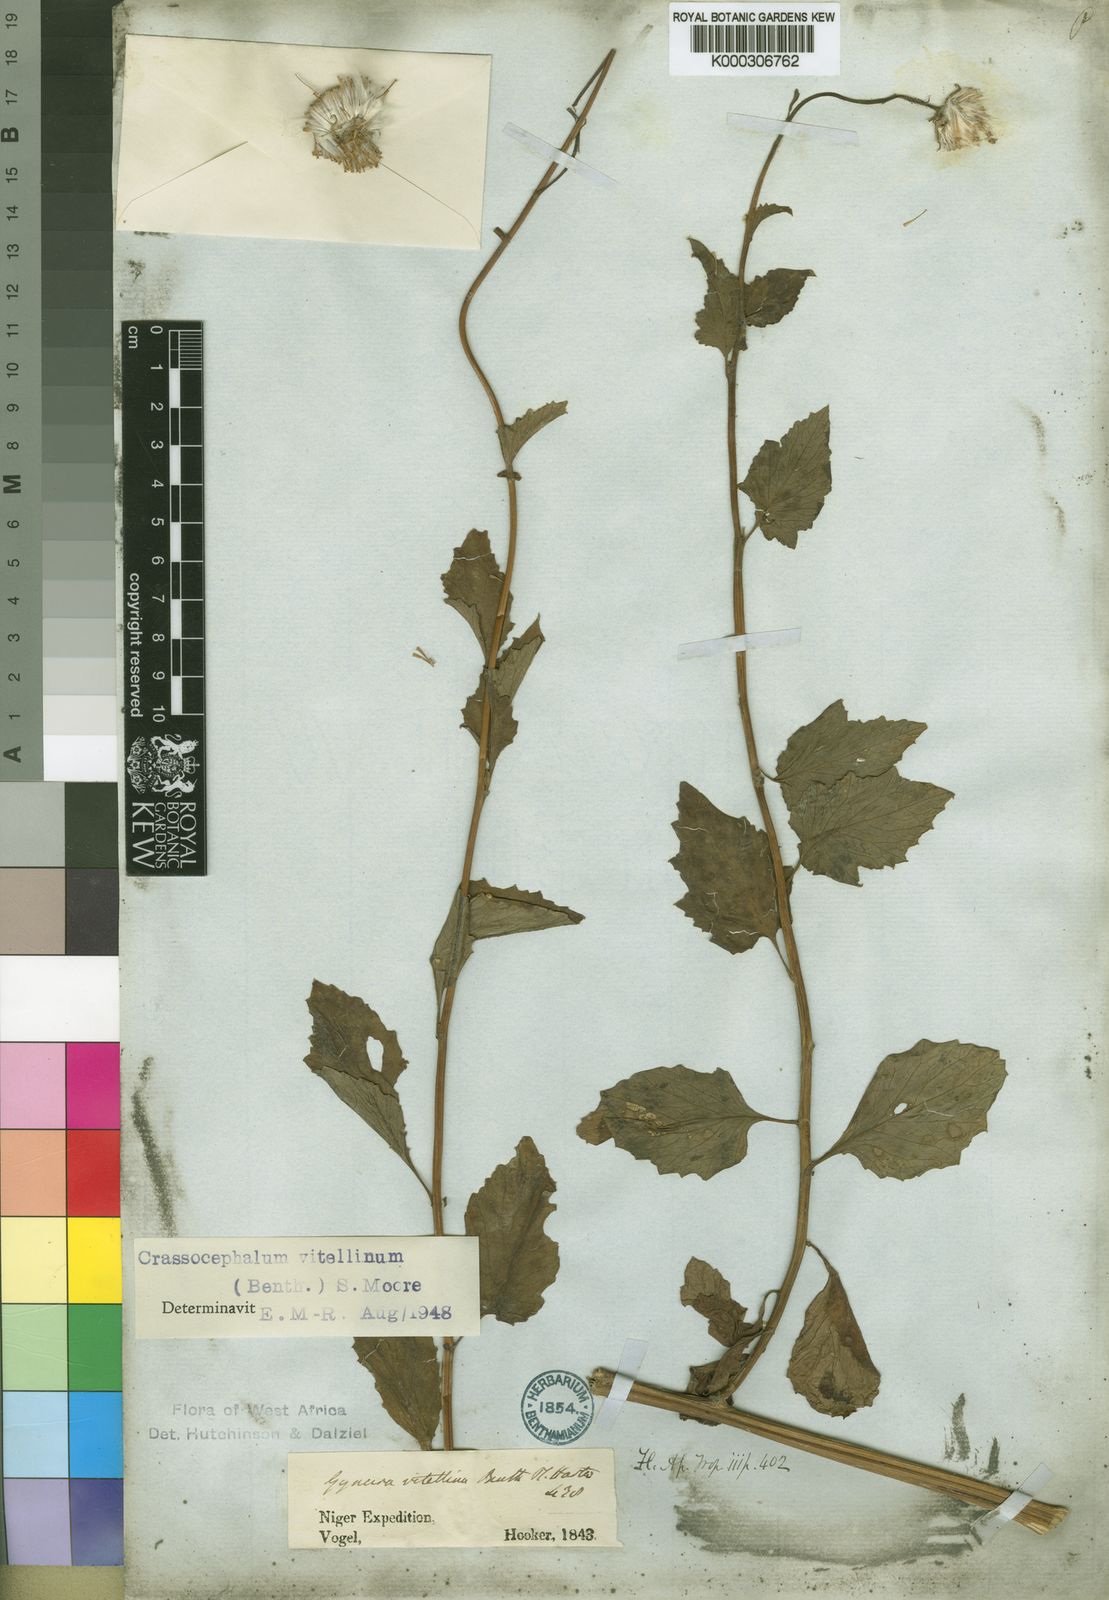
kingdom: Plantae
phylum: Tracheophyta
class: Magnoliopsida
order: Asterales
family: Asteraceae
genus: Crassocephalum
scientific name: Crassocephalum vitellinum
